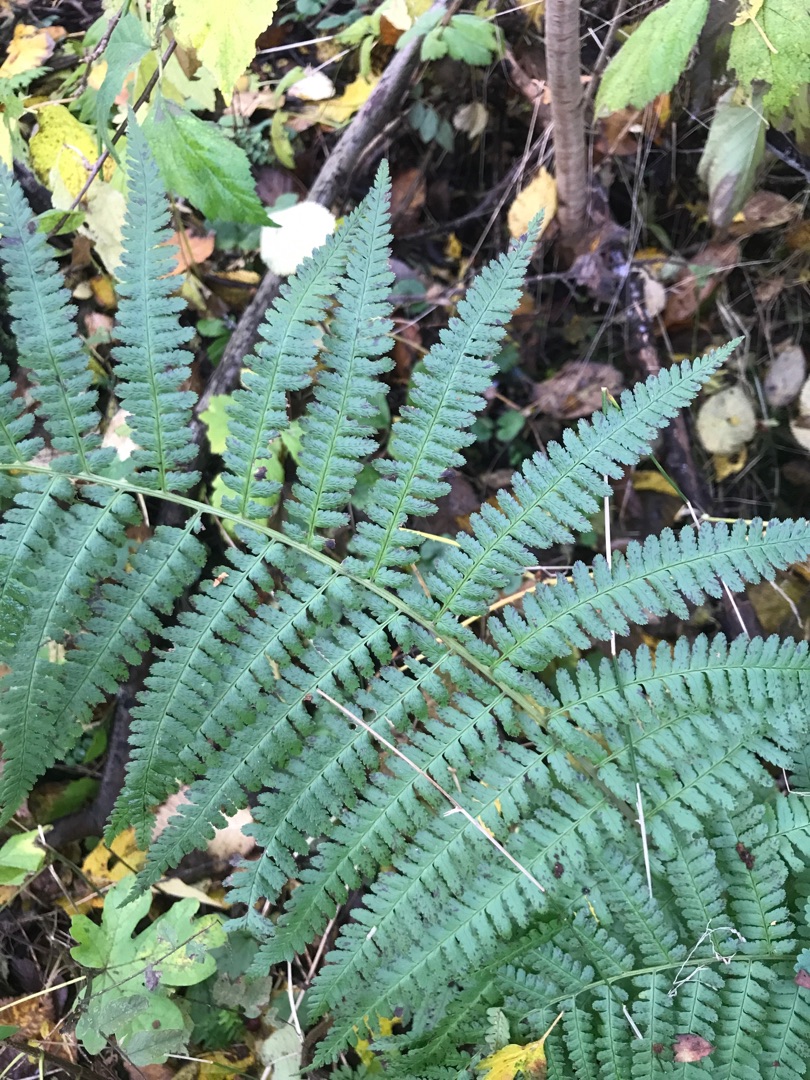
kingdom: Plantae
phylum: Tracheophyta
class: Polypodiopsida
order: Polypodiales
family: Dryopteridaceae
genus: Dryopteris
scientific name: Dryopteris filix-mas
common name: Almindelig mangeløv
